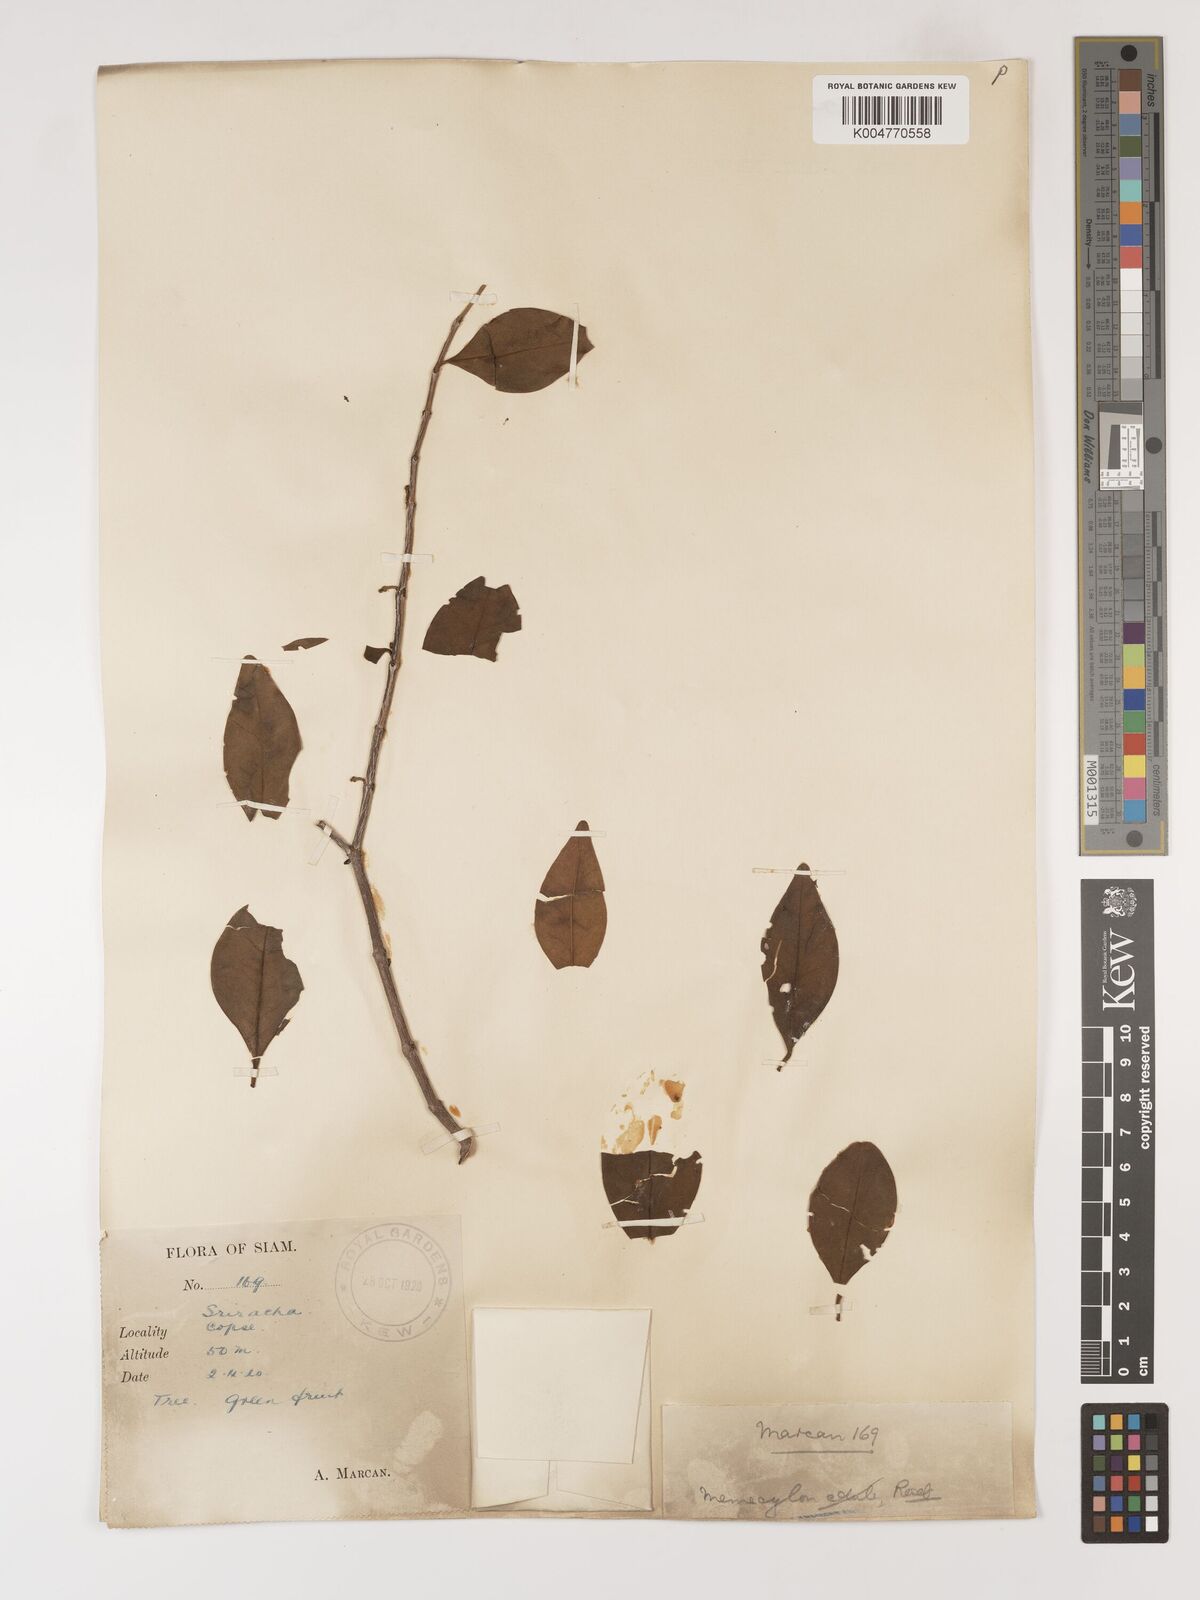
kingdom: Plantae
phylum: Tracheophyta
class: Magnoliopsida
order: Myrtales
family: Melastomataceae
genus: Memecylon
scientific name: Memecylon scutellatum
